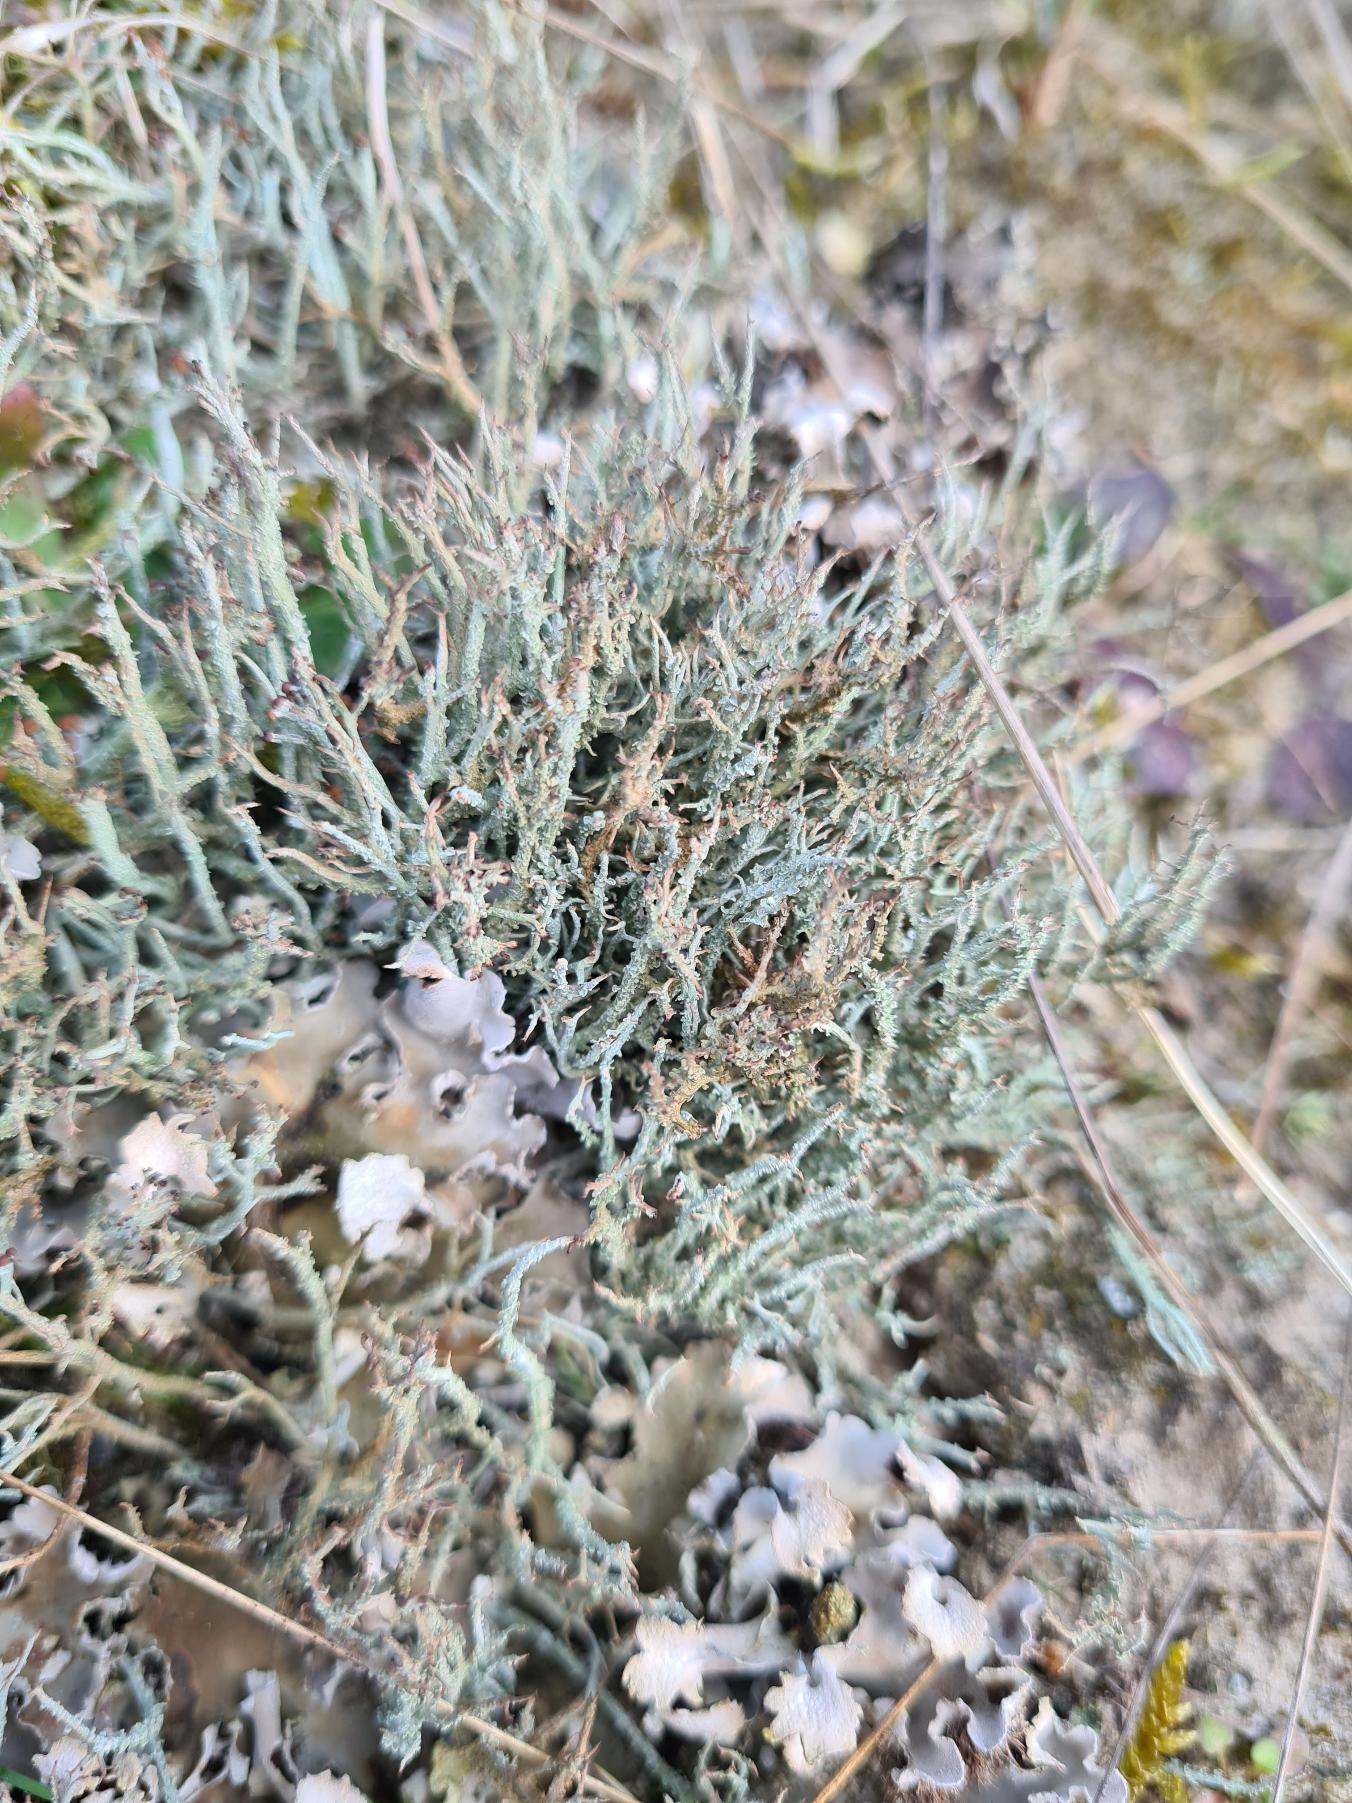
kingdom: Fungi
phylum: Ascomycota
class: Lecanoromycetes
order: Lecanorales
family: Cladoniaceae
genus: Cladonia
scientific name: Cladonia scabriuscula
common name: Ru bægerlav
